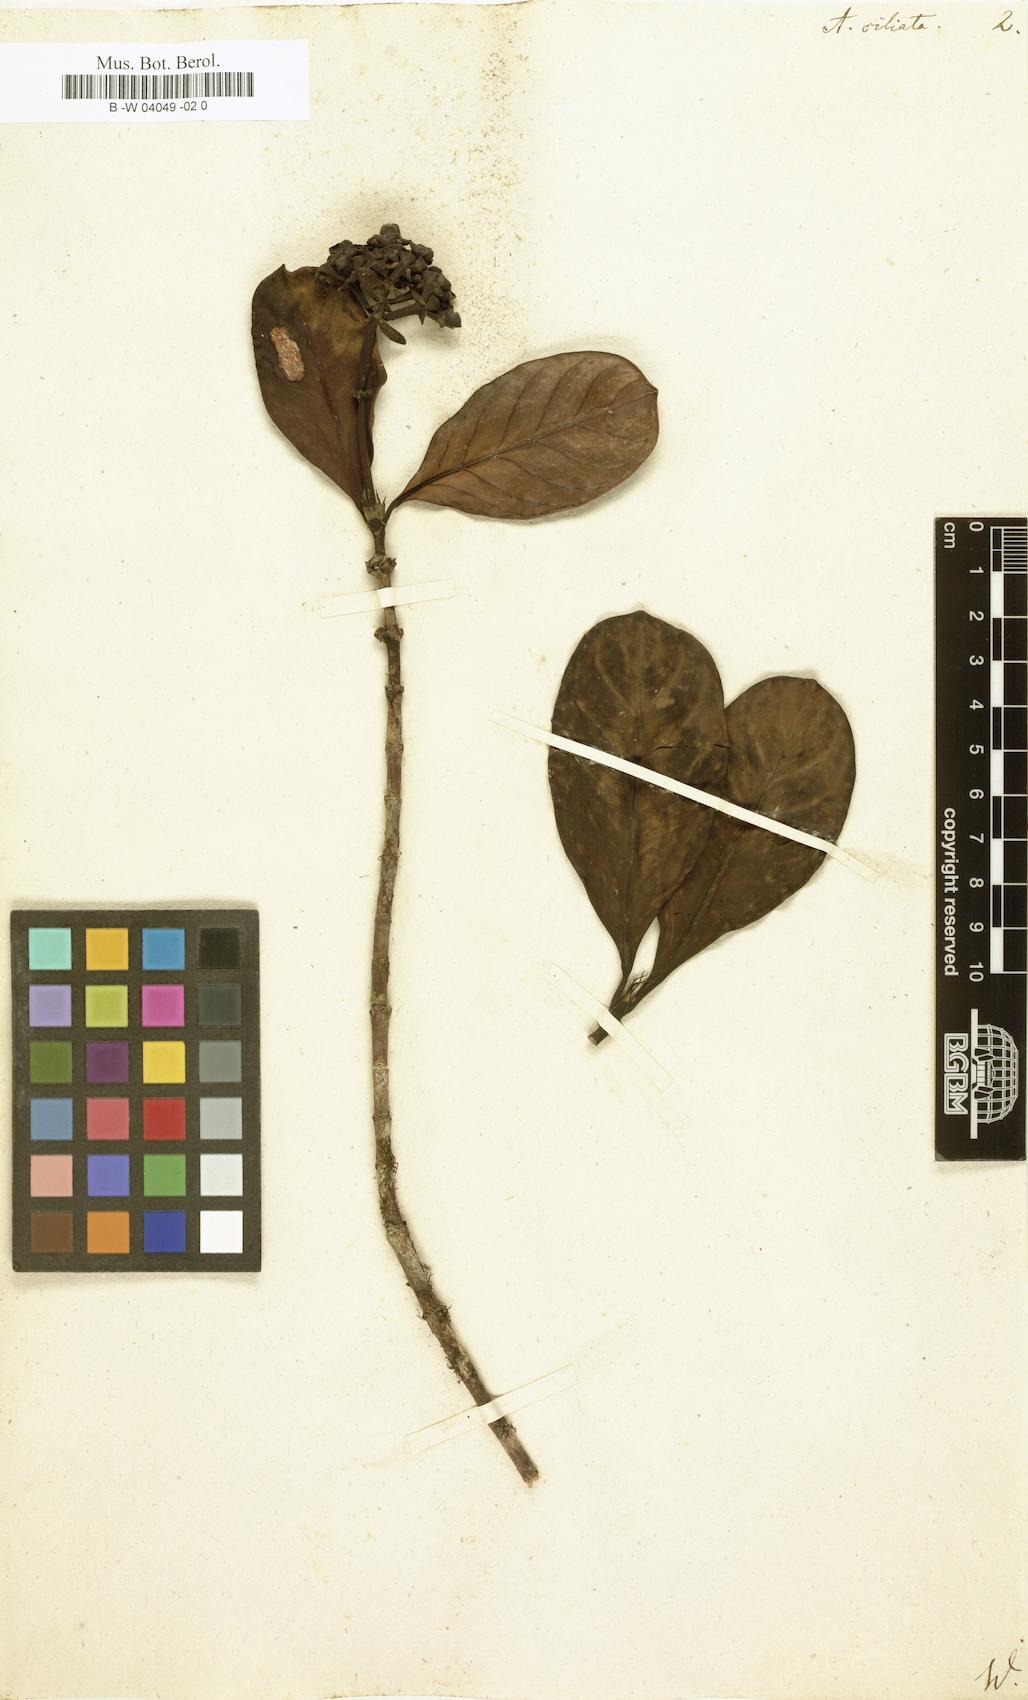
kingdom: Plantae
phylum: Tracheophyta
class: Magnoliopsida
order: Ericales
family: Ericaceae
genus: Andersonia
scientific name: Andersonia
